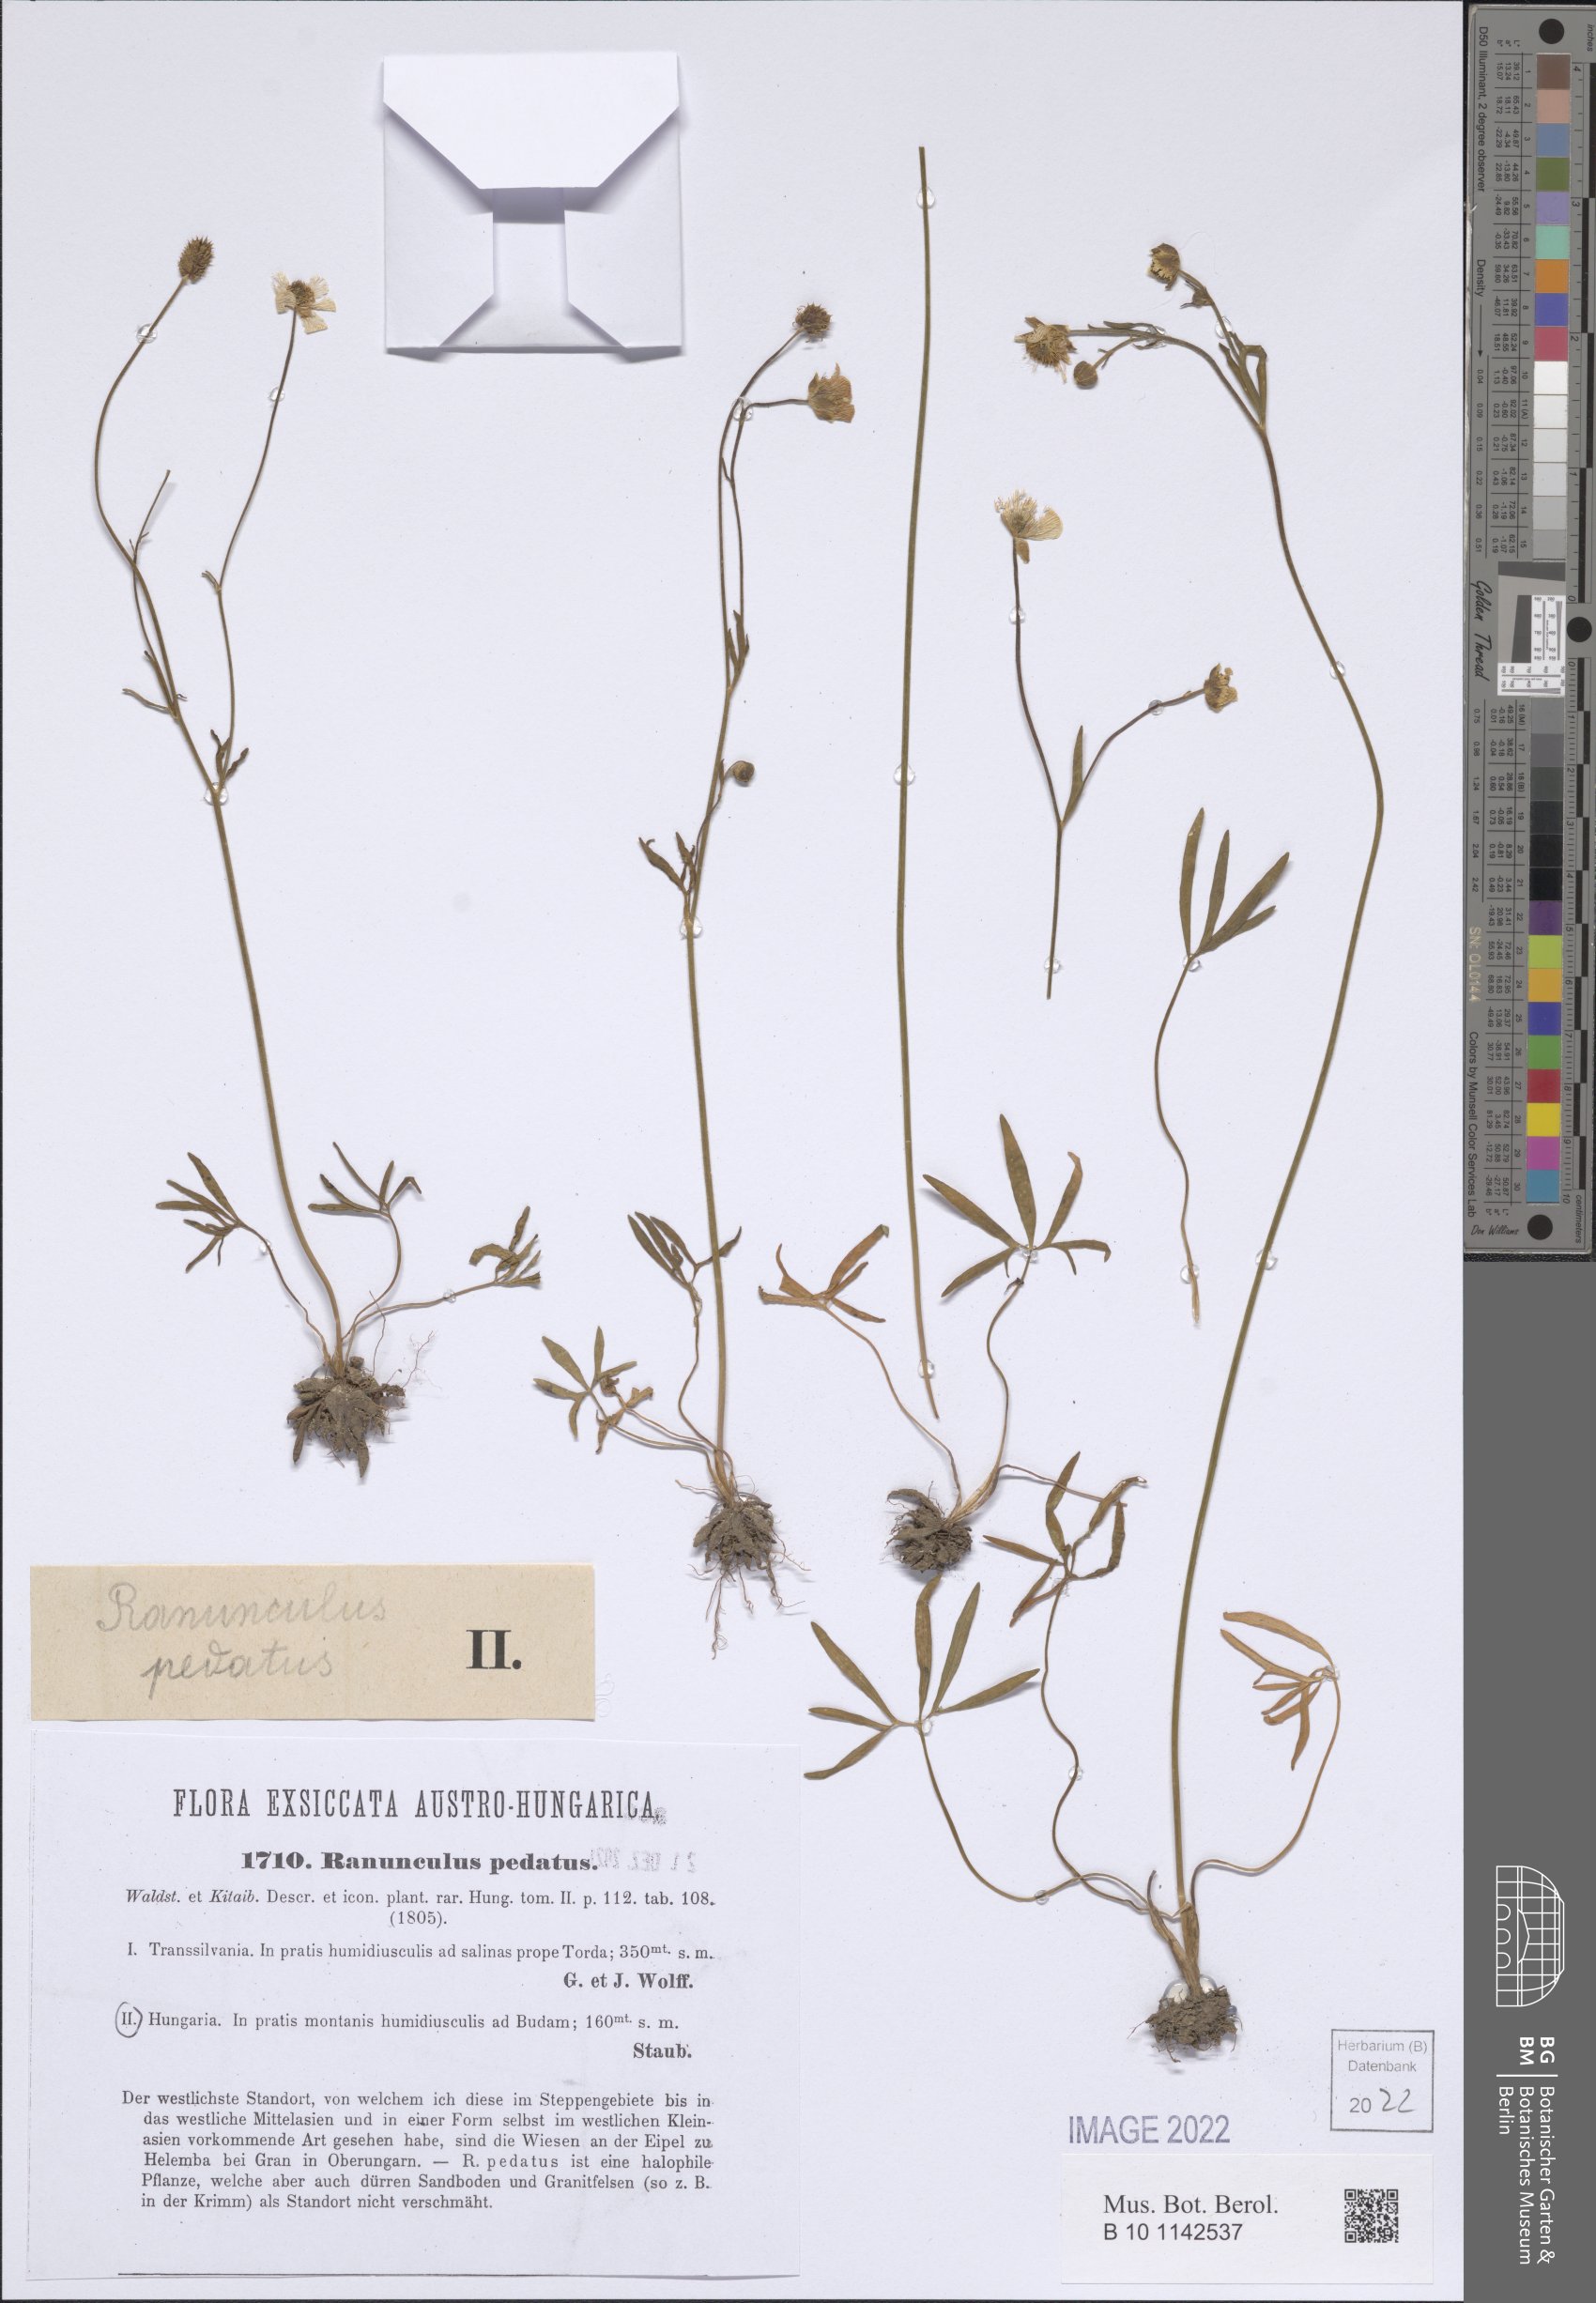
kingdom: Plantae
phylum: Tracheophyta
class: Magnoliopsida
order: Ranunculales
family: Ranunculaceae
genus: Ranunculus
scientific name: Ranunculus pedatus
